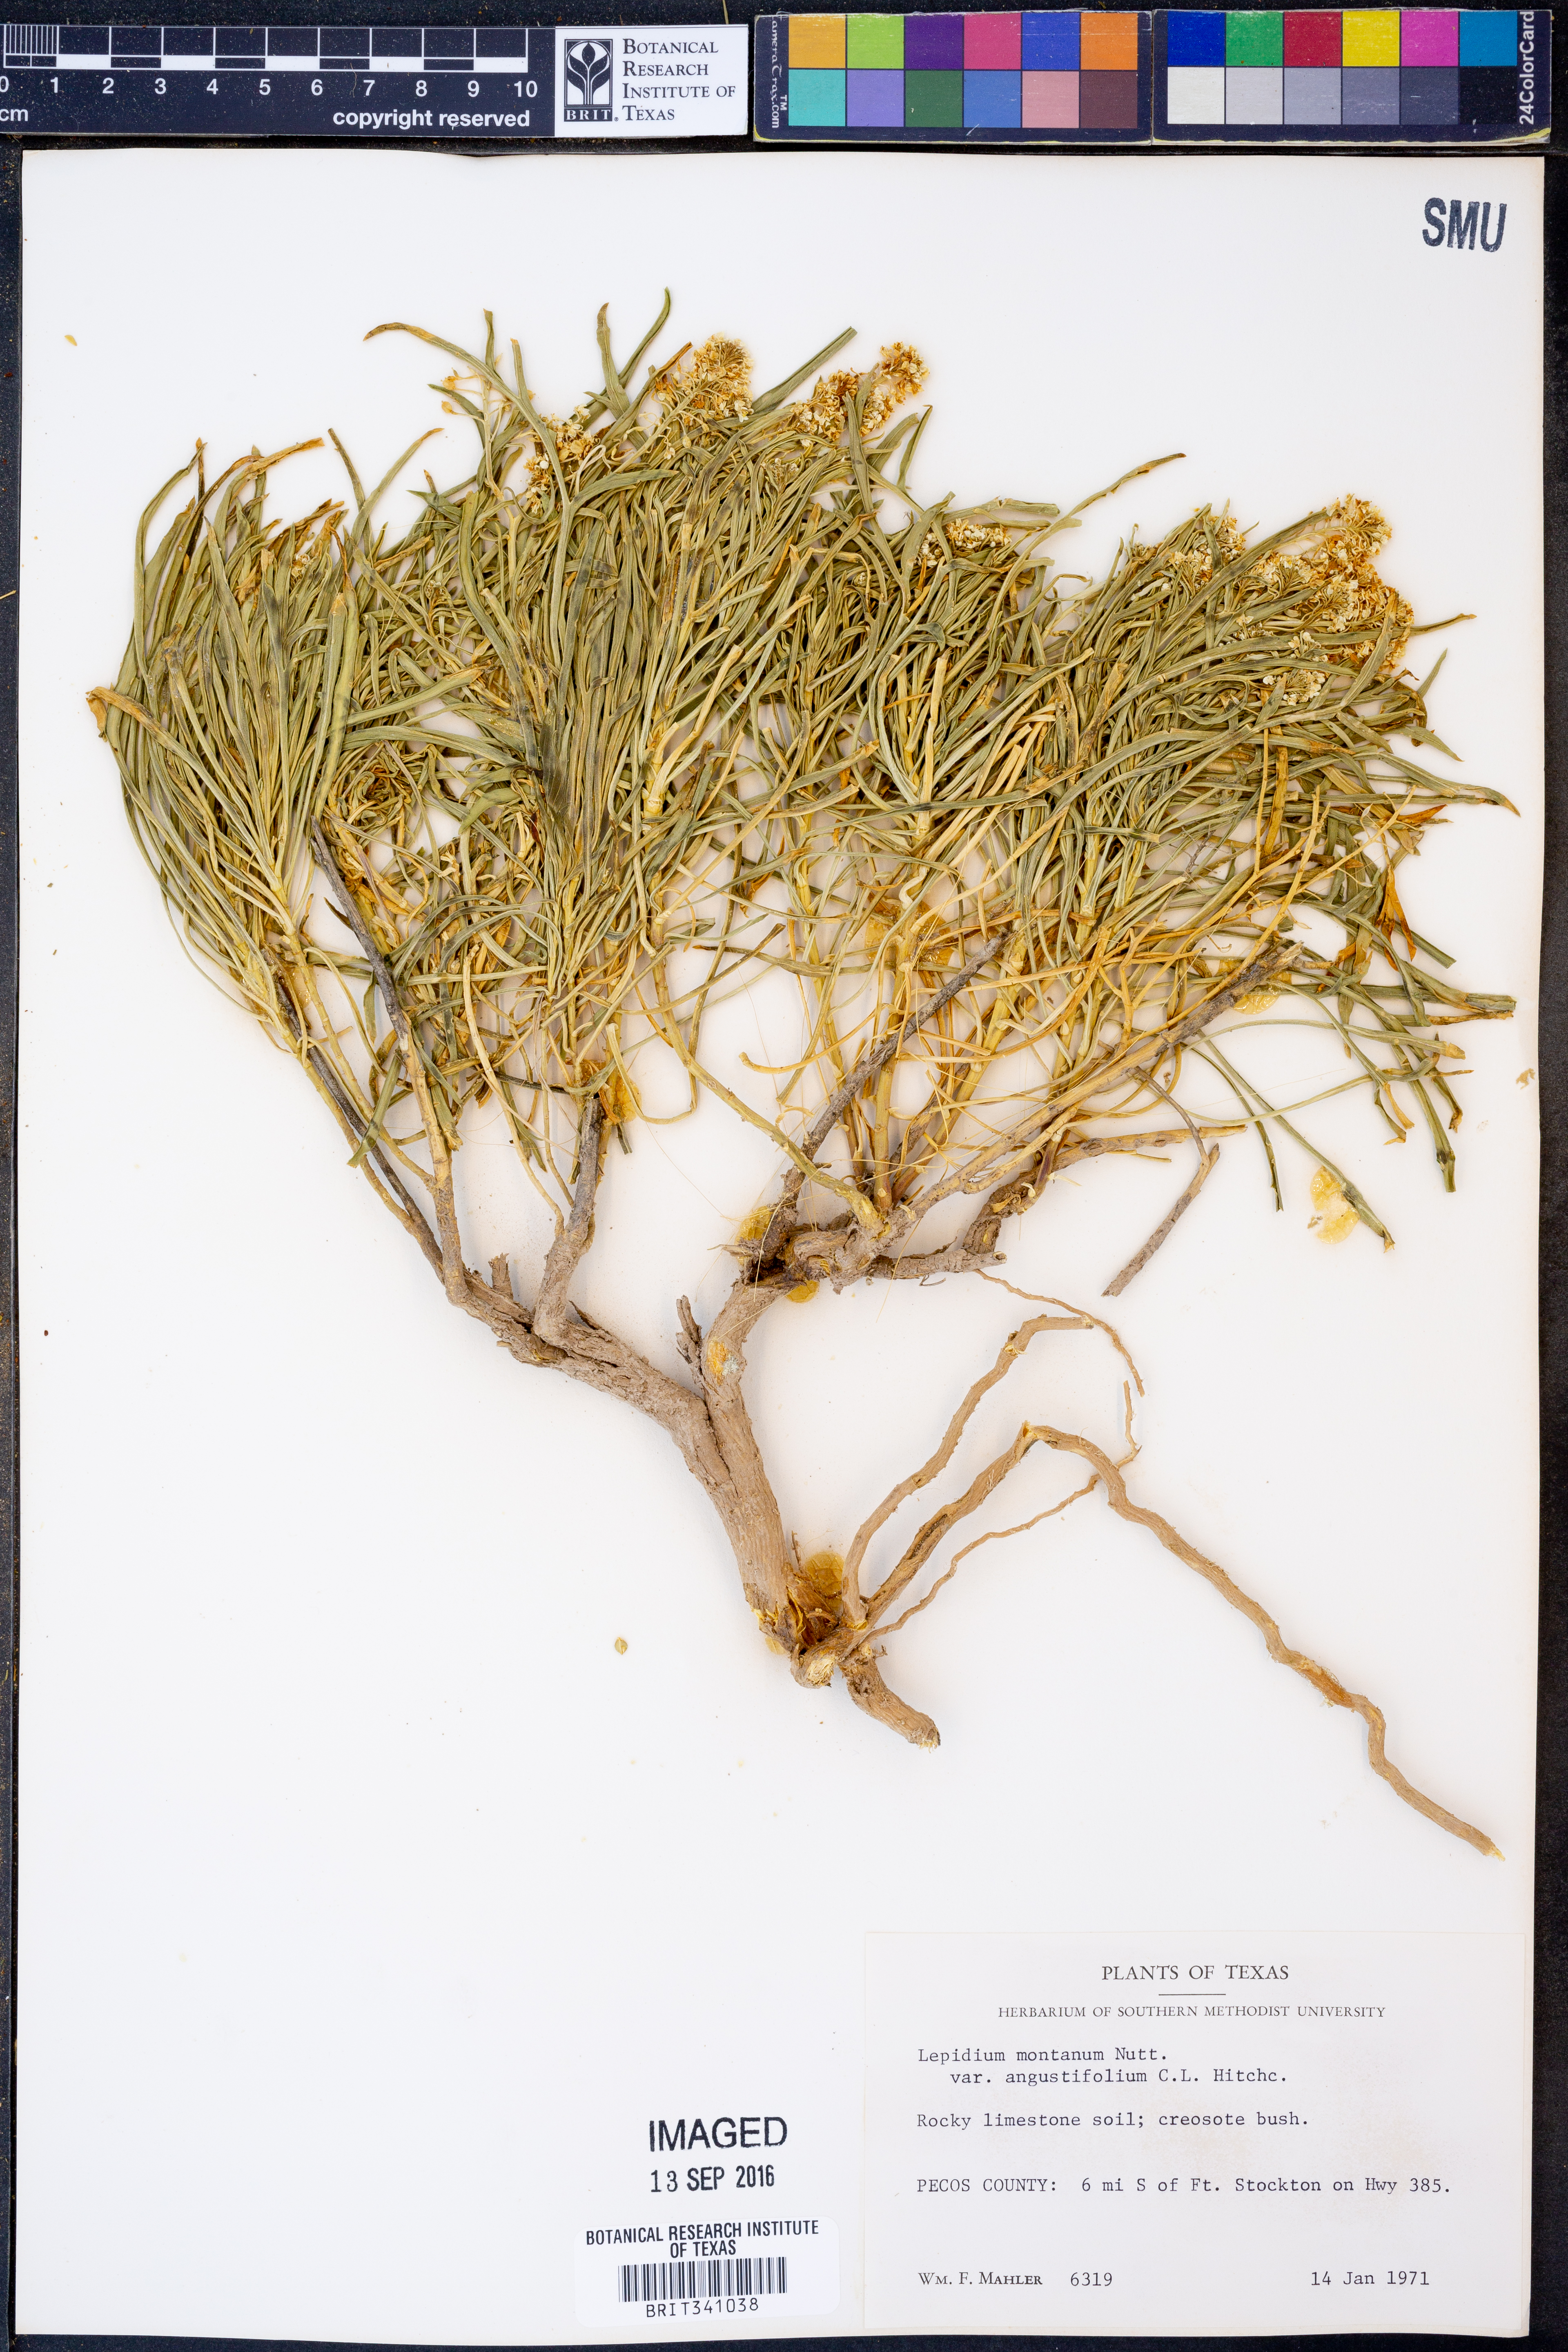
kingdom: Plantae
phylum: Tracheophyta
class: Magnoliopsida
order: Brassicales
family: Brassicaceae
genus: Lepidium
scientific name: Lepidium alyssoides
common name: Mesa pepperweed
